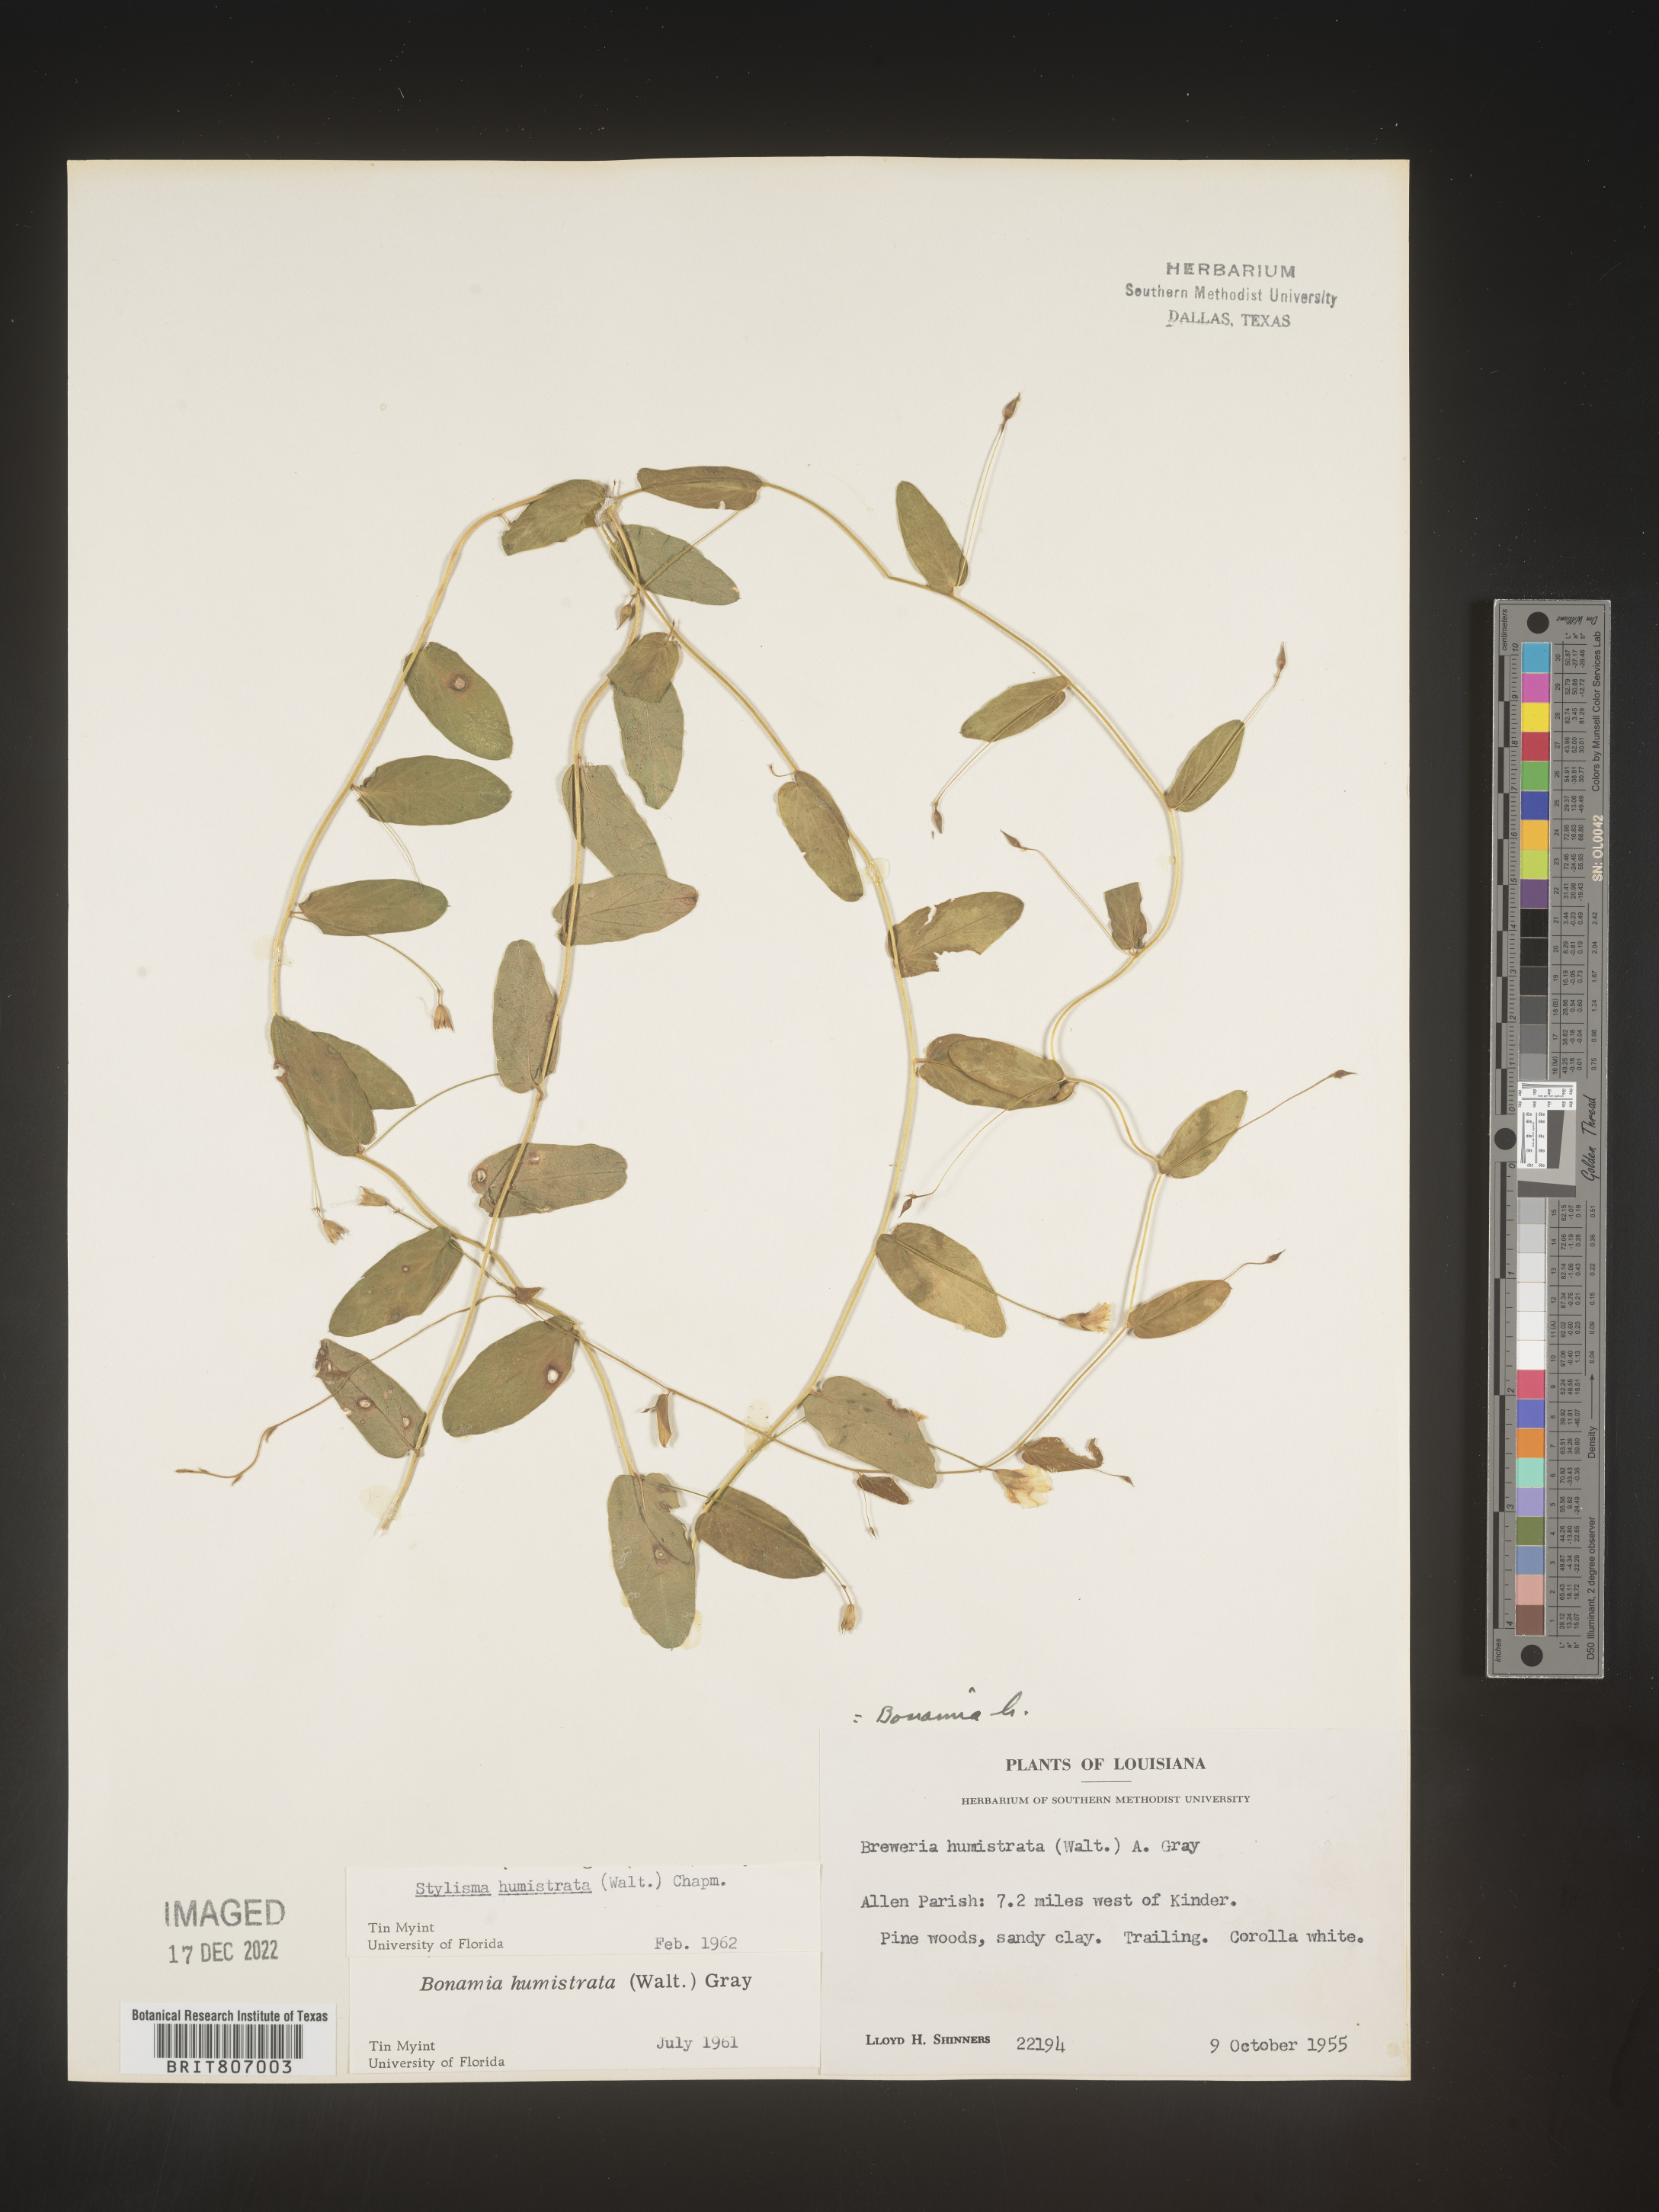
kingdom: Plantae
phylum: Tracheophyta
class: Magnoliopsida
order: Solanales
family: Convolvulaceae
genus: Stylisma
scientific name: Stylisma humistrata
